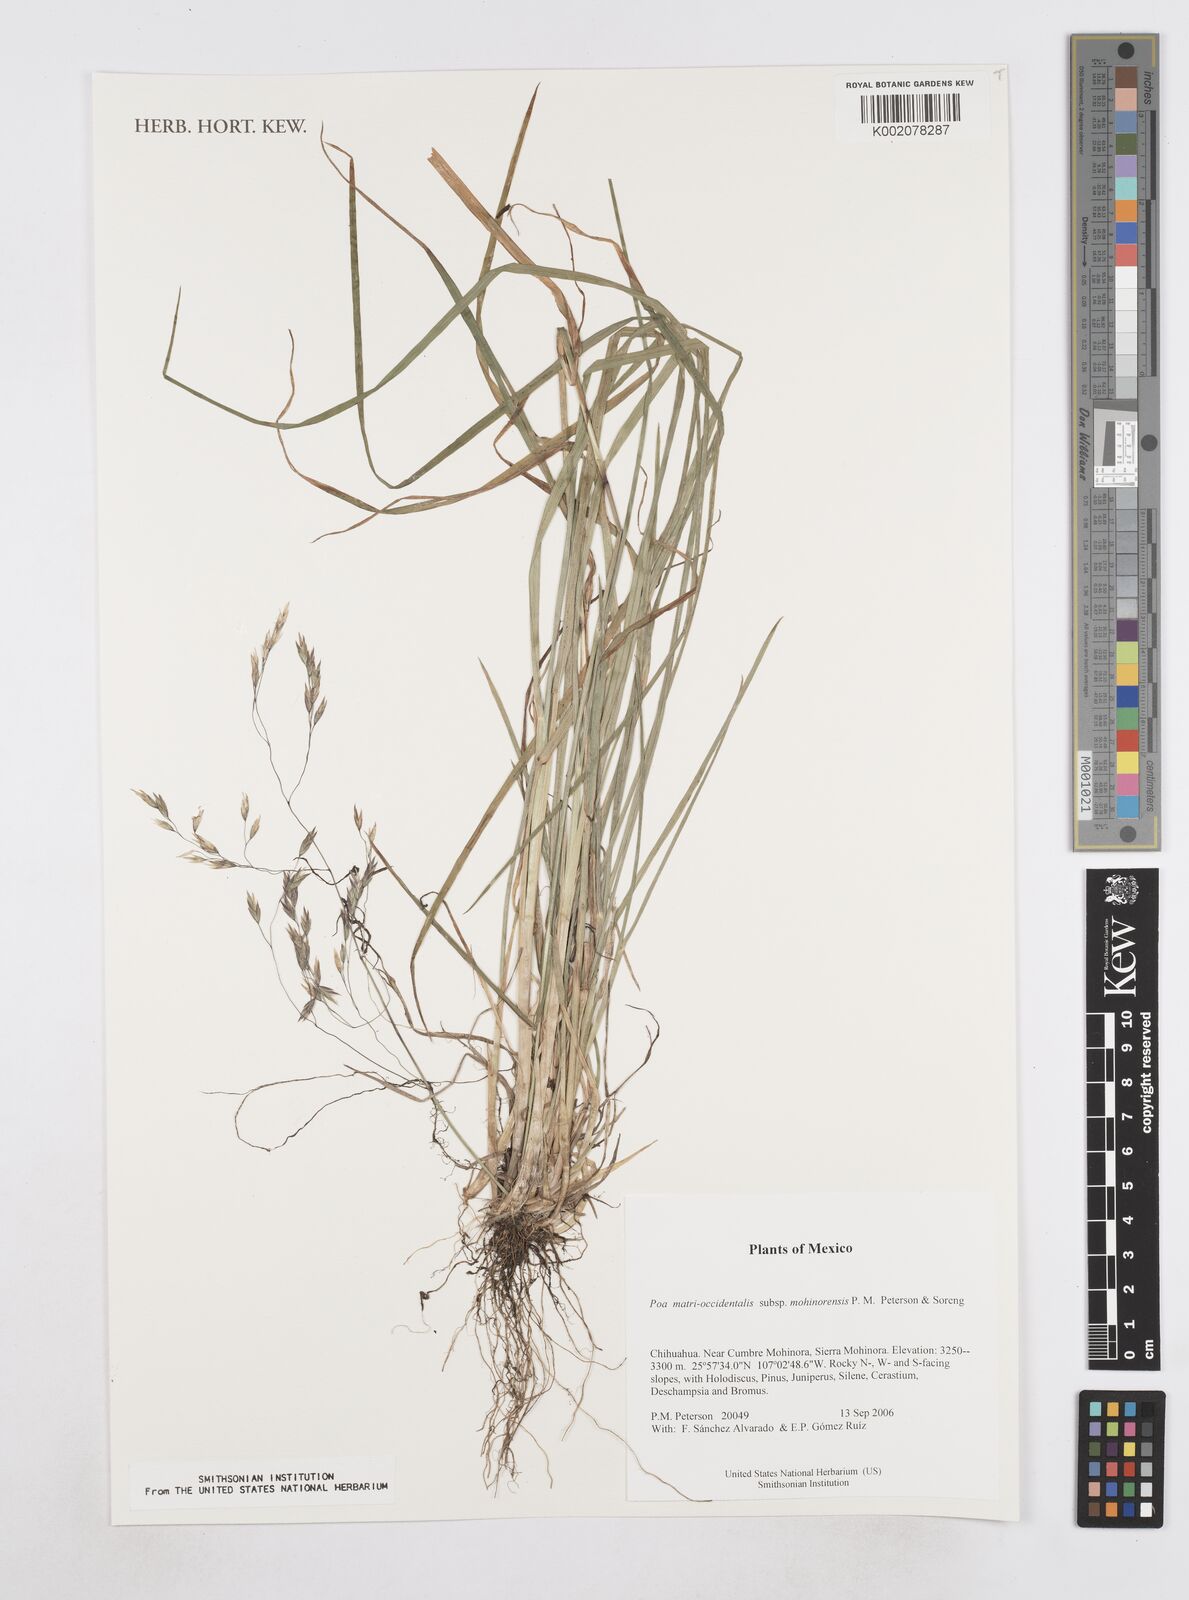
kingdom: Plantae
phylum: Tracheophyta
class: Liliopsida
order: Poales
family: Poaceae
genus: Poa
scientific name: Poa matris-occidentalis
